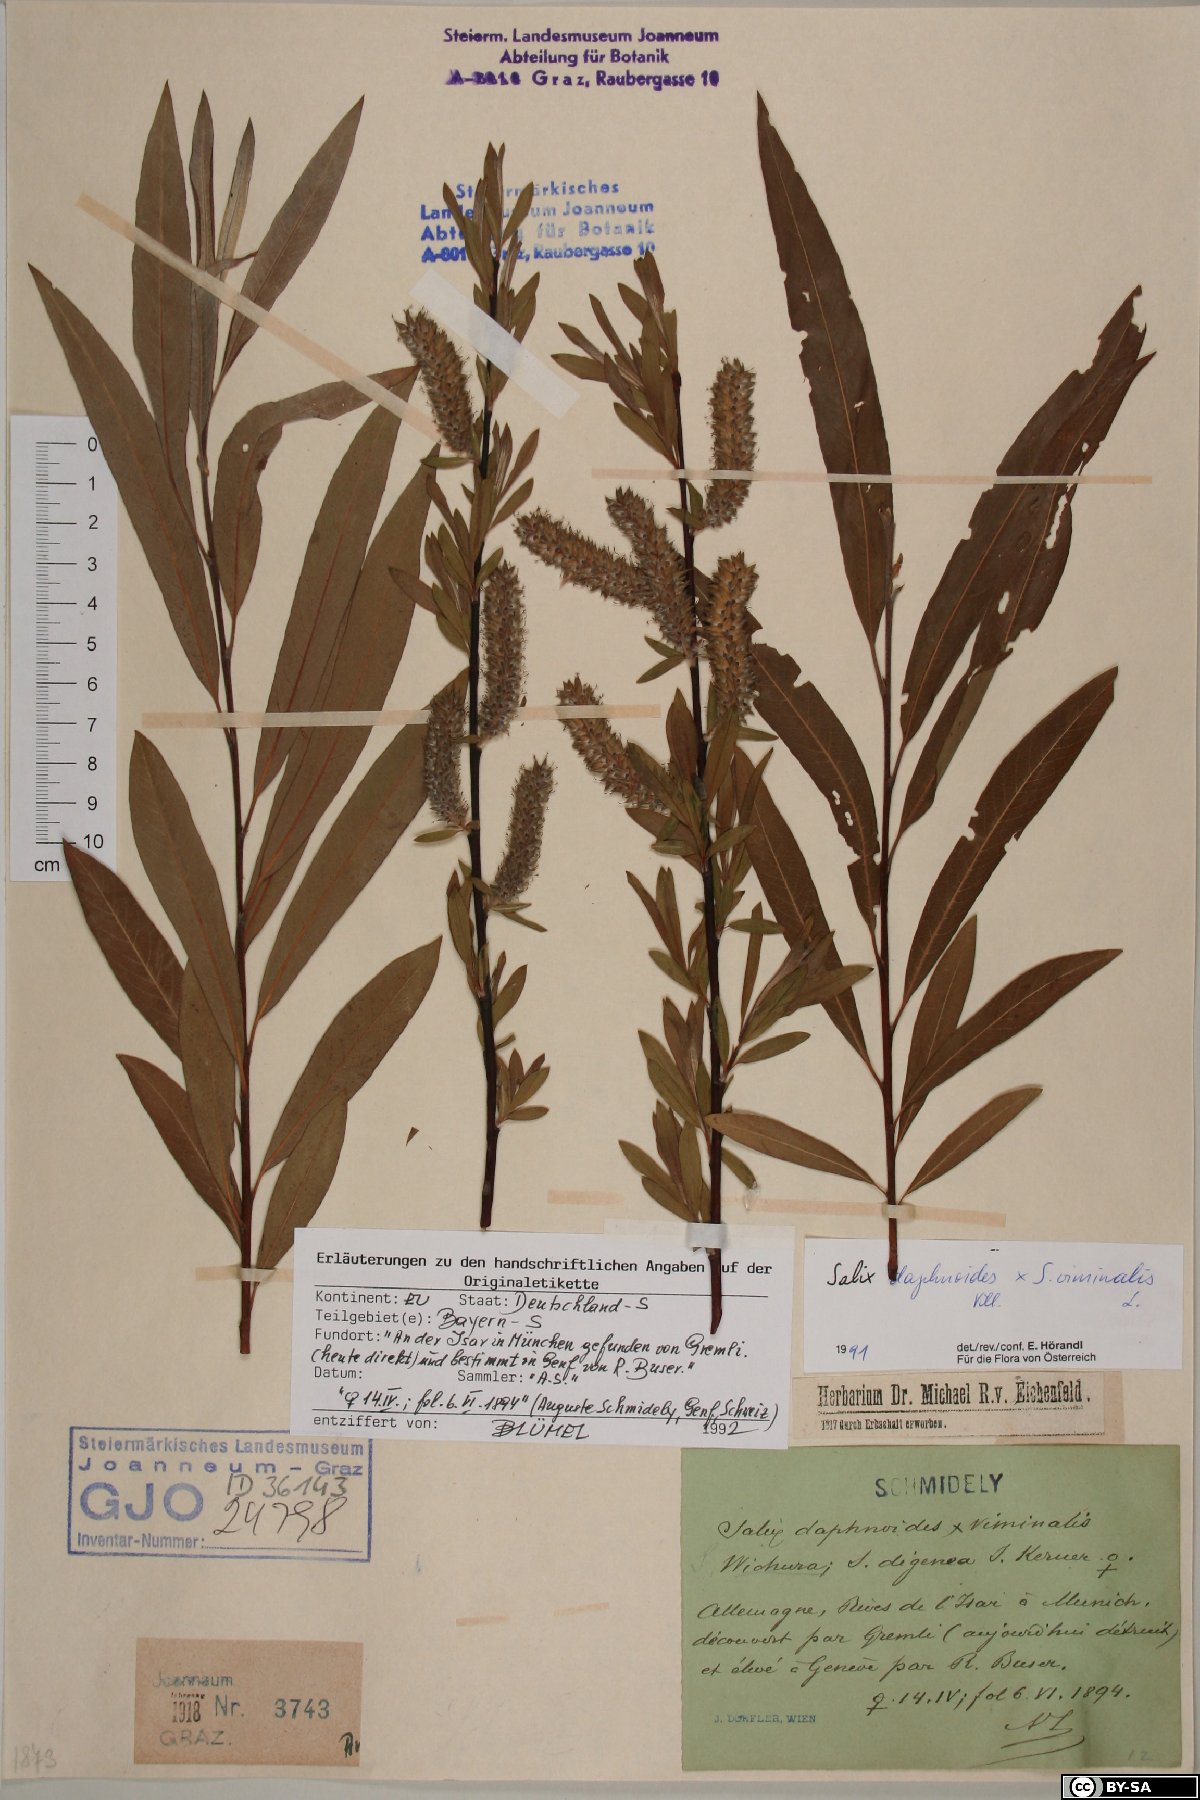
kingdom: Plantae
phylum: Tracheophyta
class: Magnoliopsida
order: Malpighiales
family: Salicaceae
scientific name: Salicaceae
